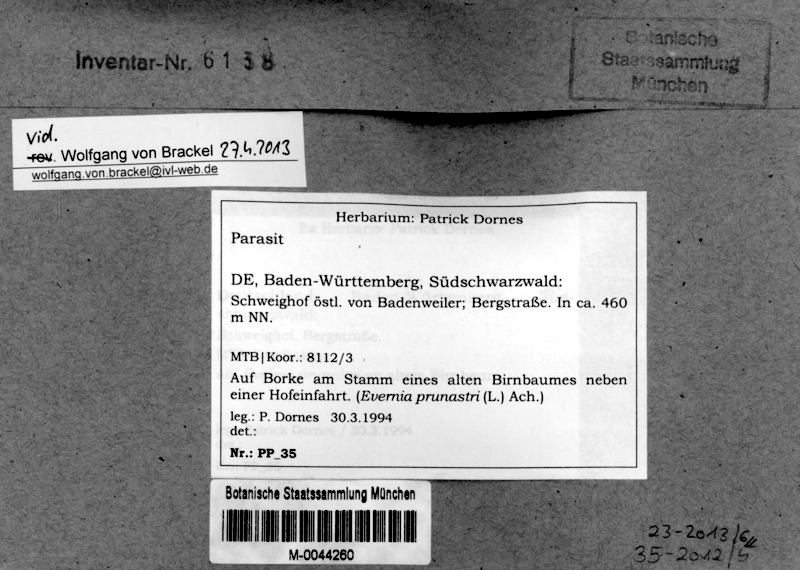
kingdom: Fungi
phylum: Ascomycota
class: Eurotiomycetes
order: Sclerococcales
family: Sclerococcaceae
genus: Sclerococcum
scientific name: Sclerococcum
